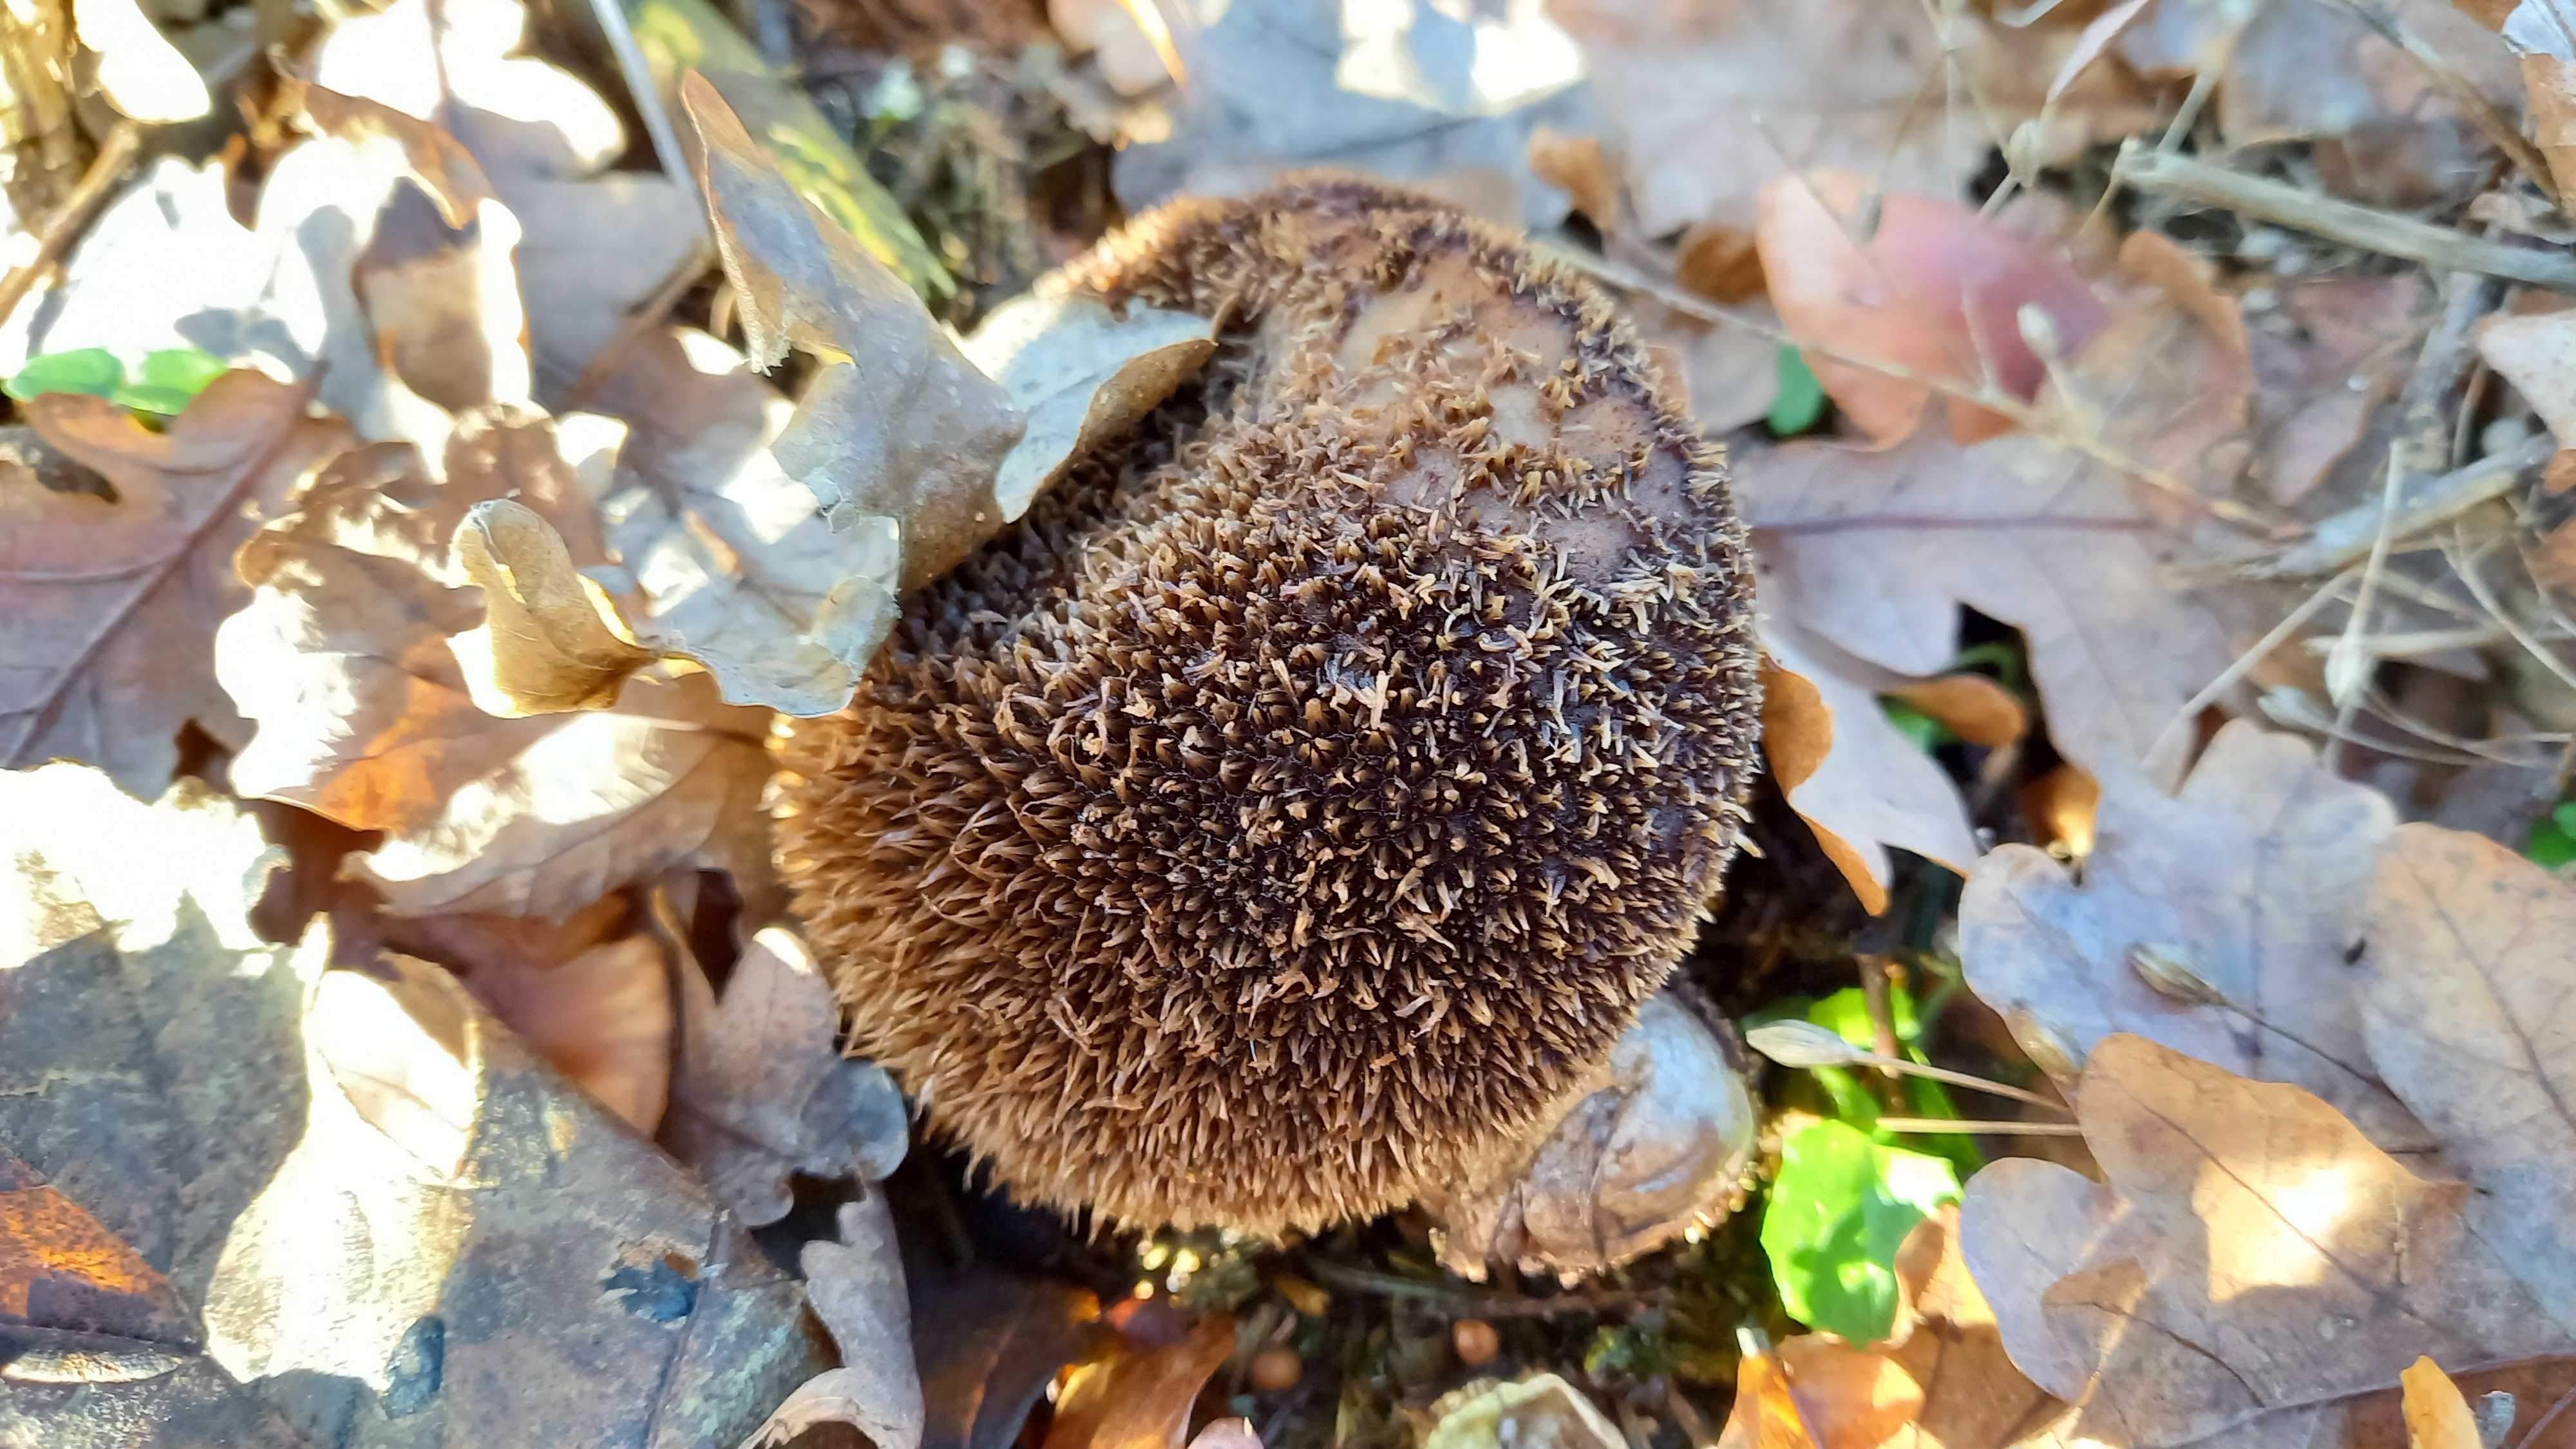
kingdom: Fungi
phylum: Basidiomycota
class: Agaricomycetes
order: Agaricales
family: Lycoperdaceae
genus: Lycoperdon
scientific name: Lycoperdon echinatum
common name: pindsvine-støvbold
